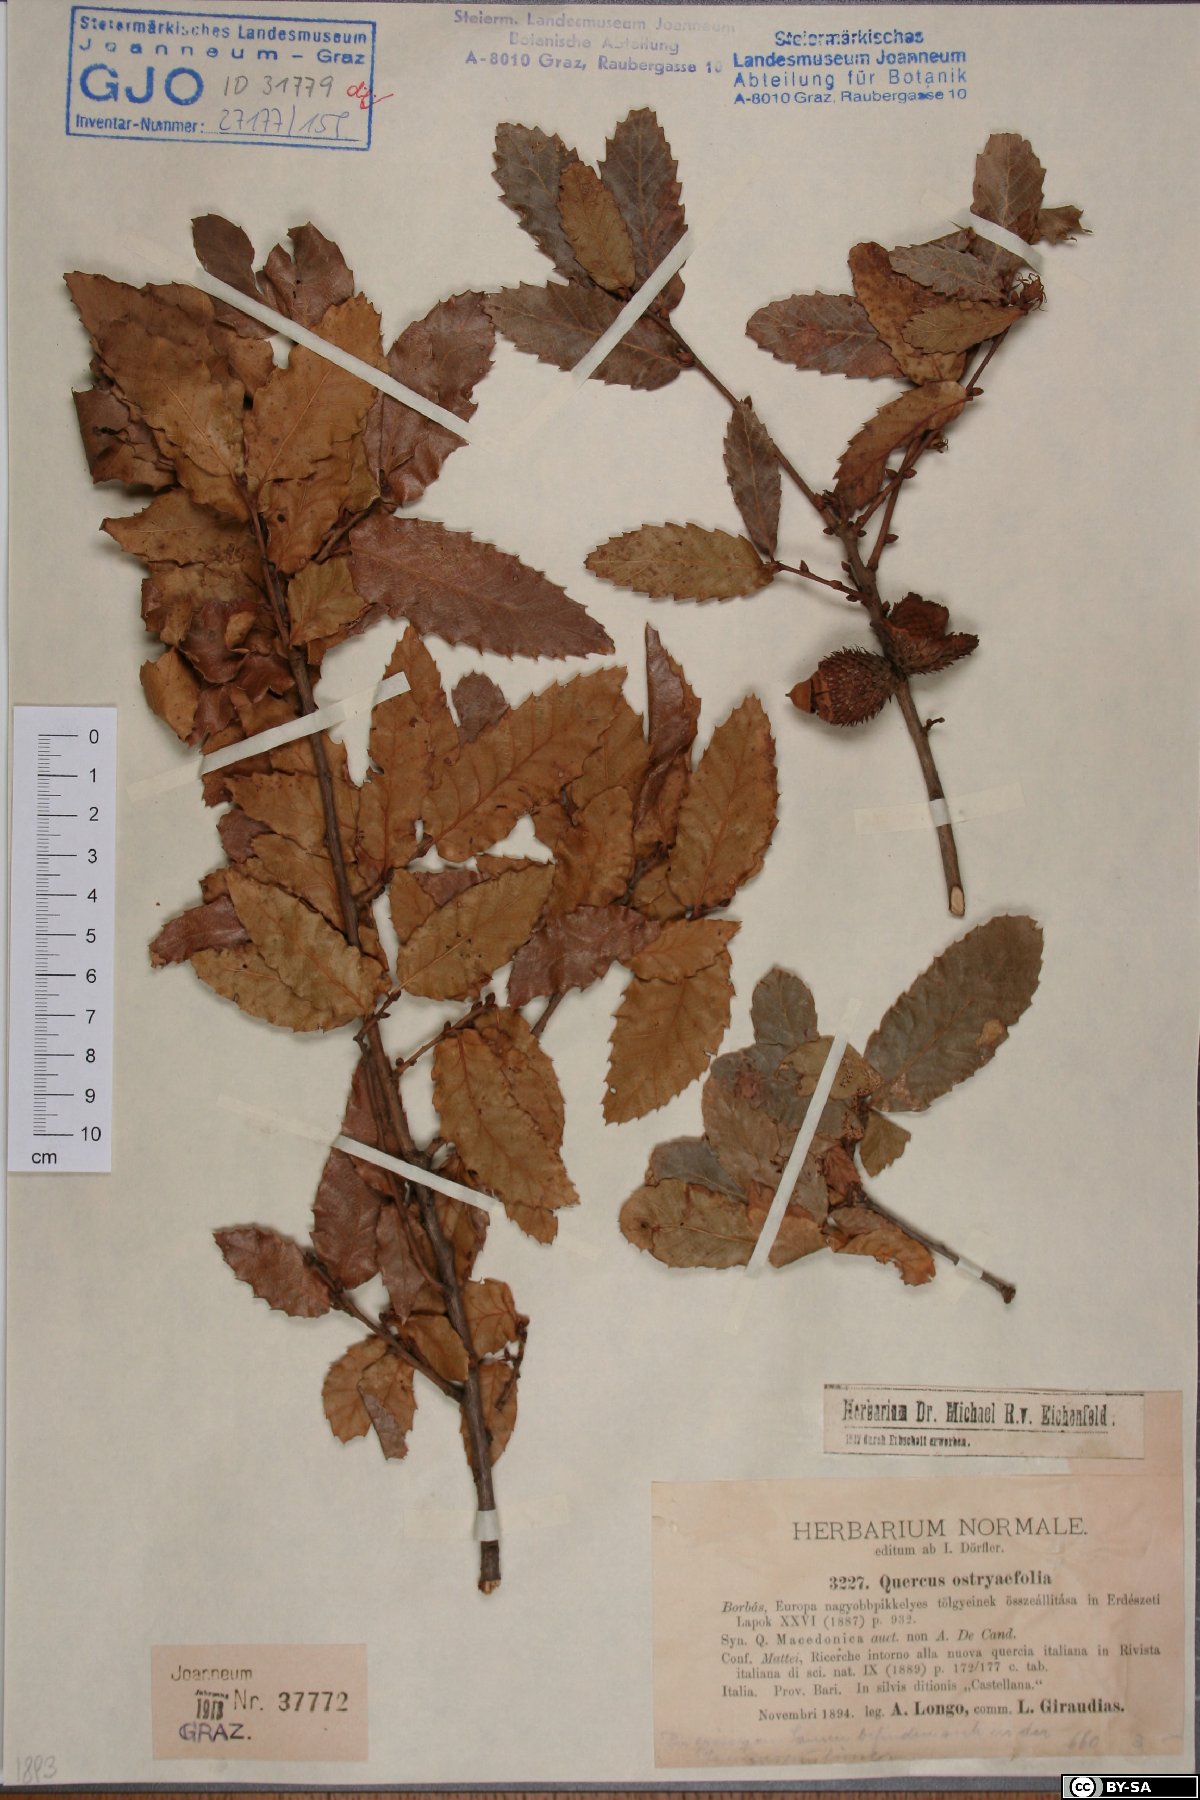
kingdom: Plantae
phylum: Tracheophyta
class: Magnoliopsida
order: Fagales
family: Fagaceae
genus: Quercus
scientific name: Quercus trojana
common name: Macedonian oak
